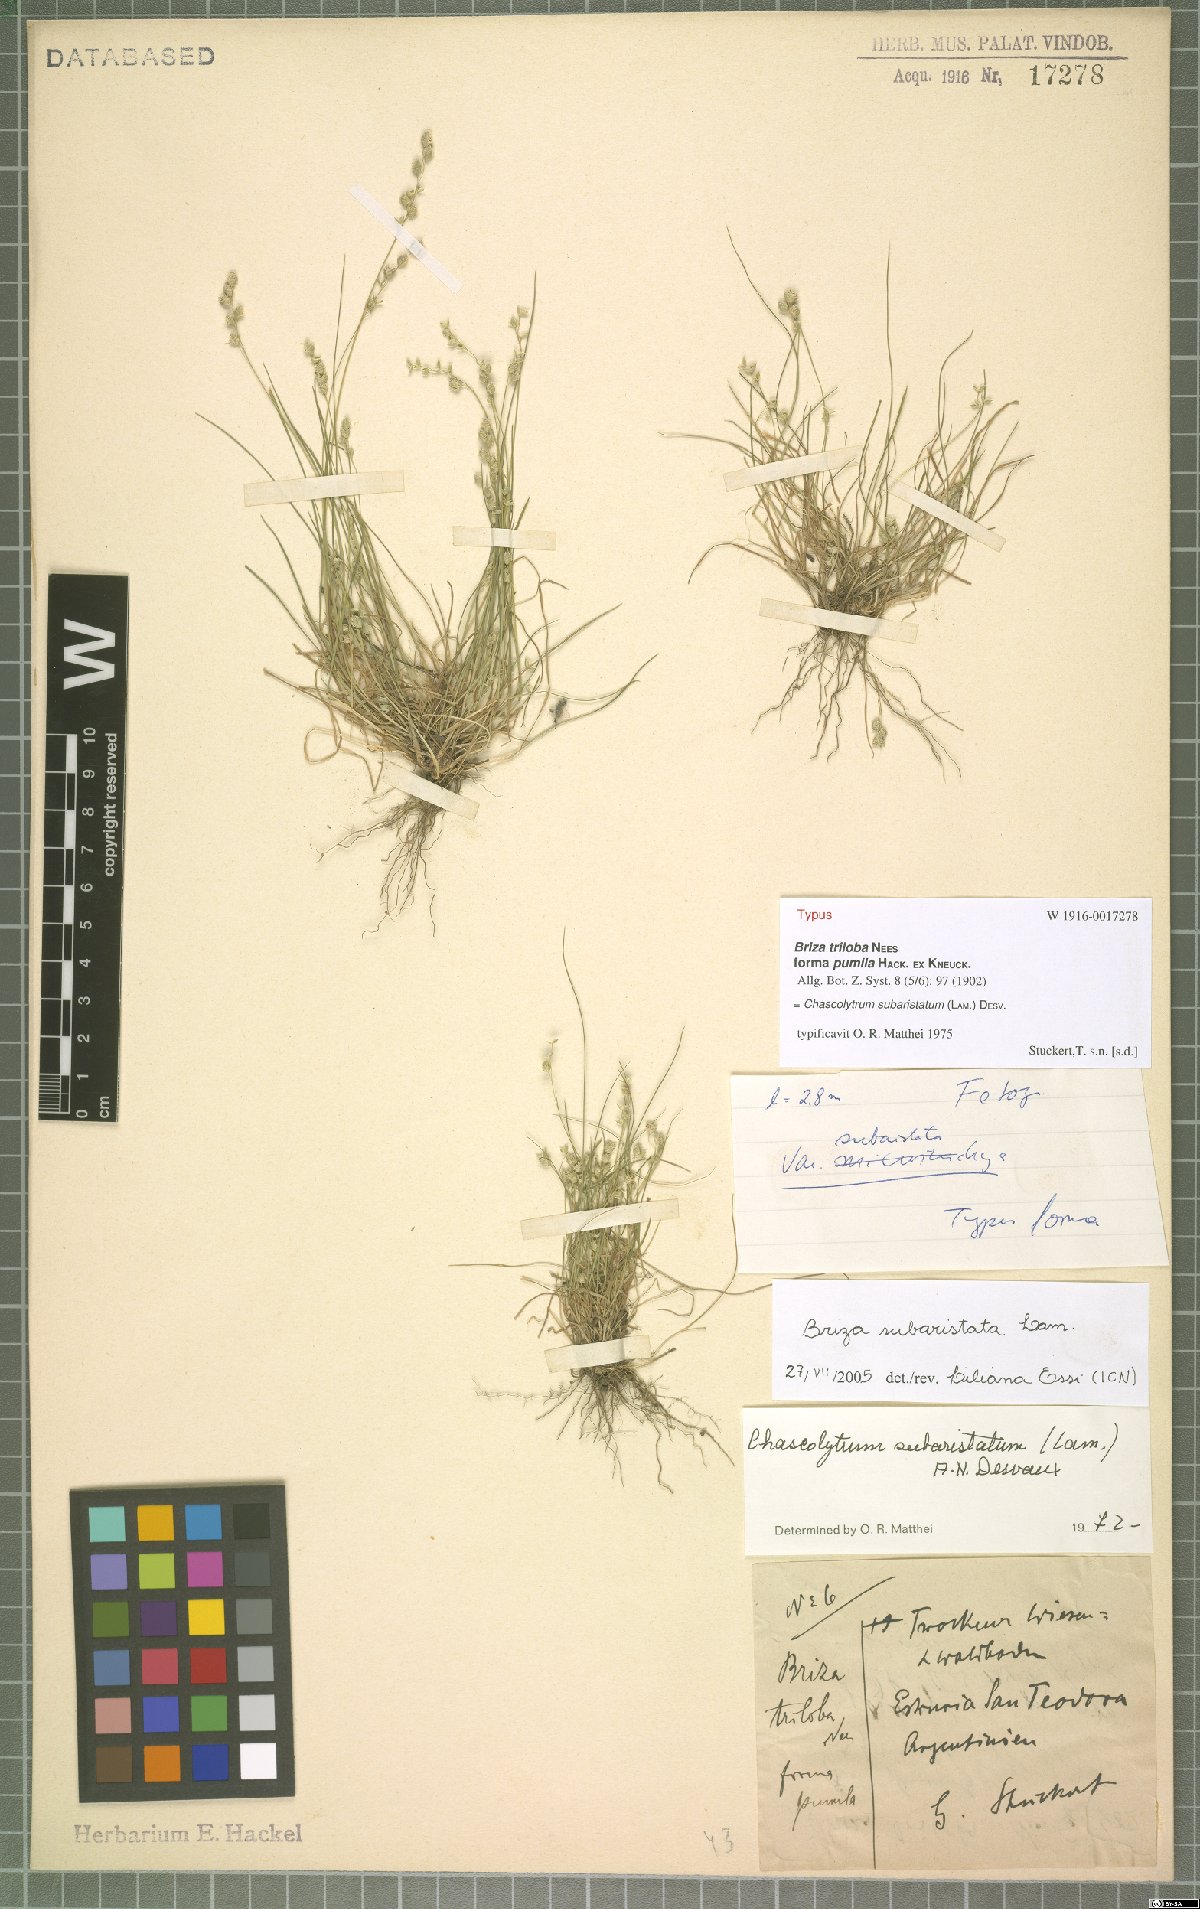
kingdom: Plantae
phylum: Tracheophyta
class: Liliopsida
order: Poales
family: Poaceae
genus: Chascolytrum
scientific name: Chascolytrum subaristatum
